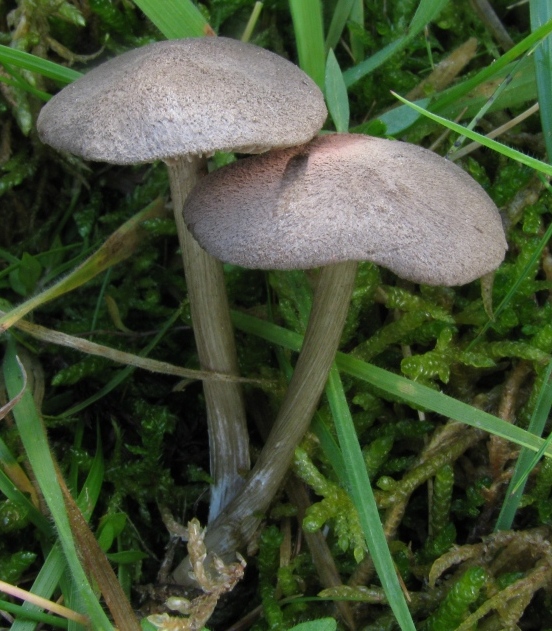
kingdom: Fungi
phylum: Basidiomycota
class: Agaricomycetes
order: Agaricales
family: Entolomataceae
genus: Entoloma
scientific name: Entoloma jubatum
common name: ruskællet rødblad
